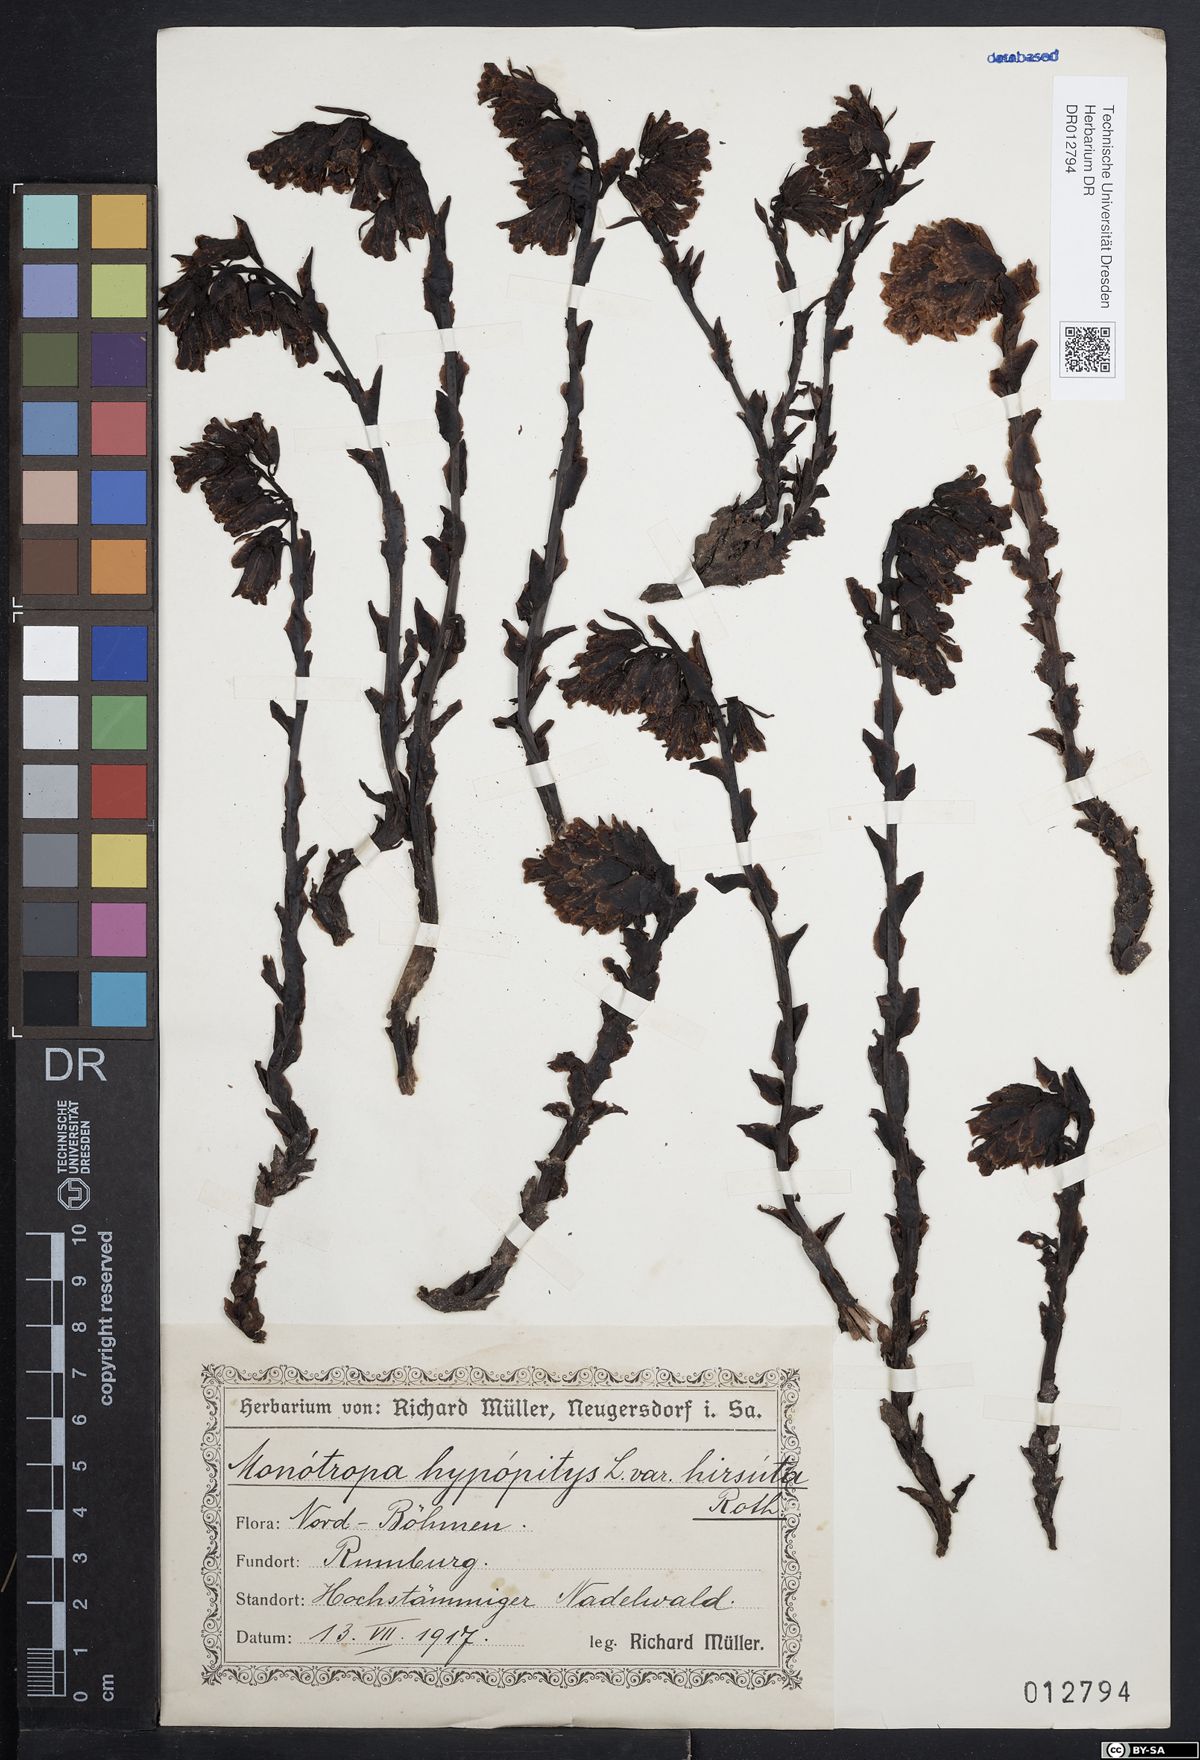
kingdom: Plantae
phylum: Tracheophyta
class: Magnoliopsida
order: Ericales
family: Ericaceae
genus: Hypopitys
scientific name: Hypopitys monotropa
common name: Yellow bird's-nest
